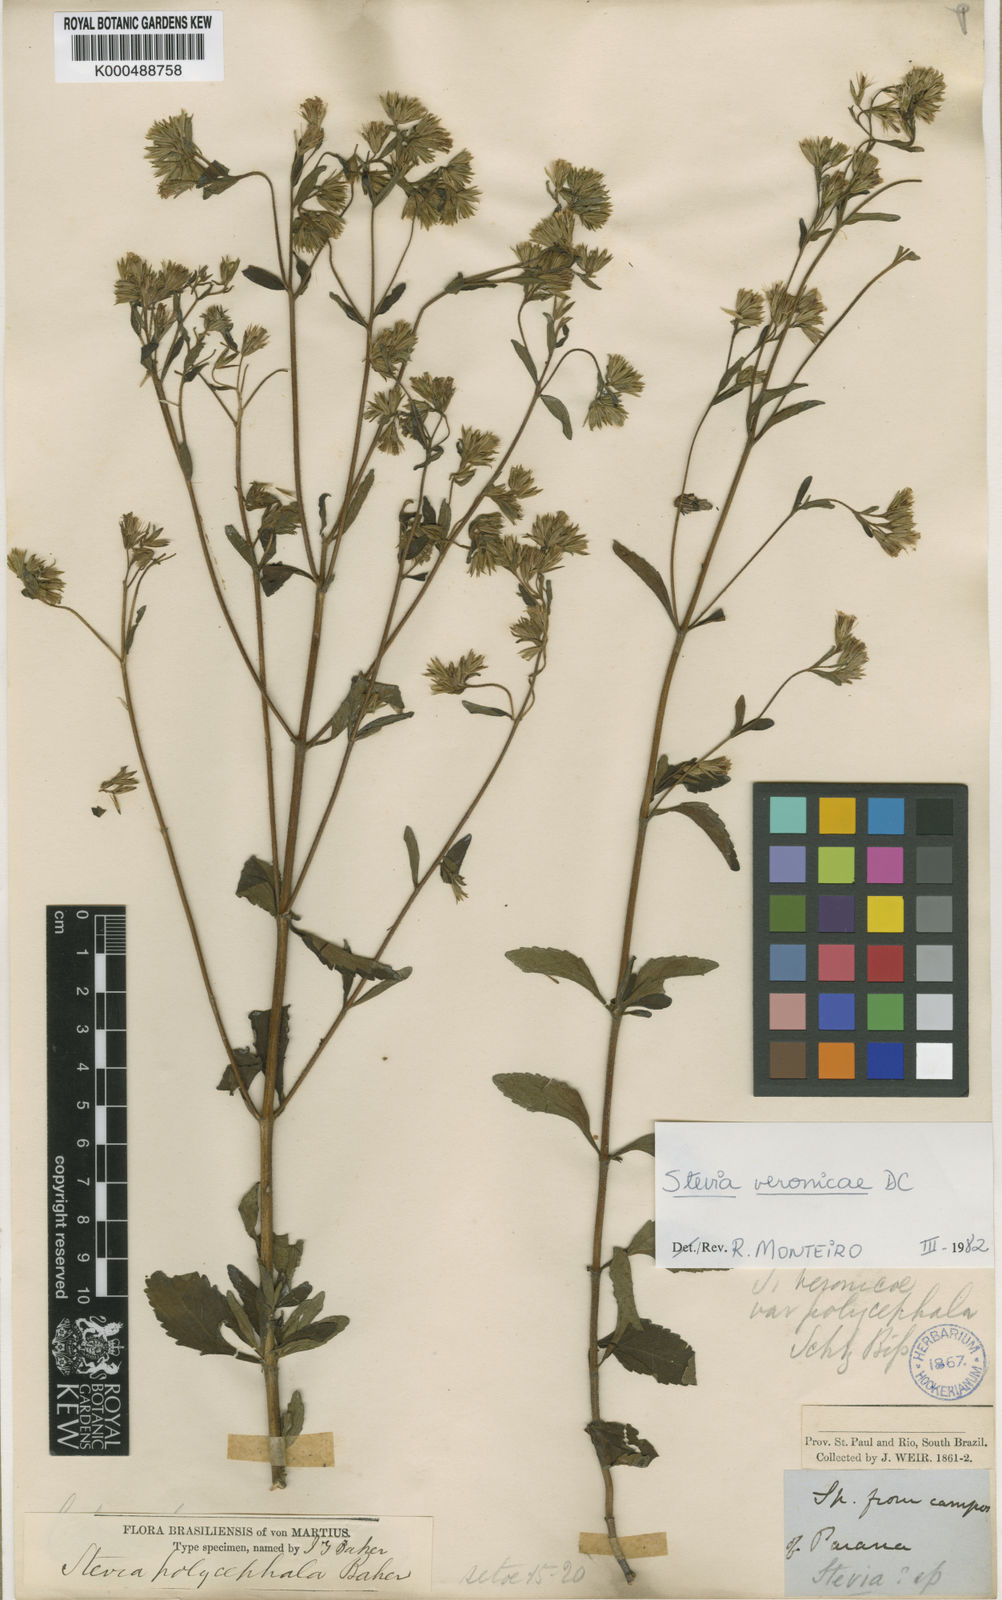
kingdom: Plantae
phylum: Tracheophyta
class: Magnoliopsida
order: Asterales
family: Asteraceae
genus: Stevia
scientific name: Stevia
